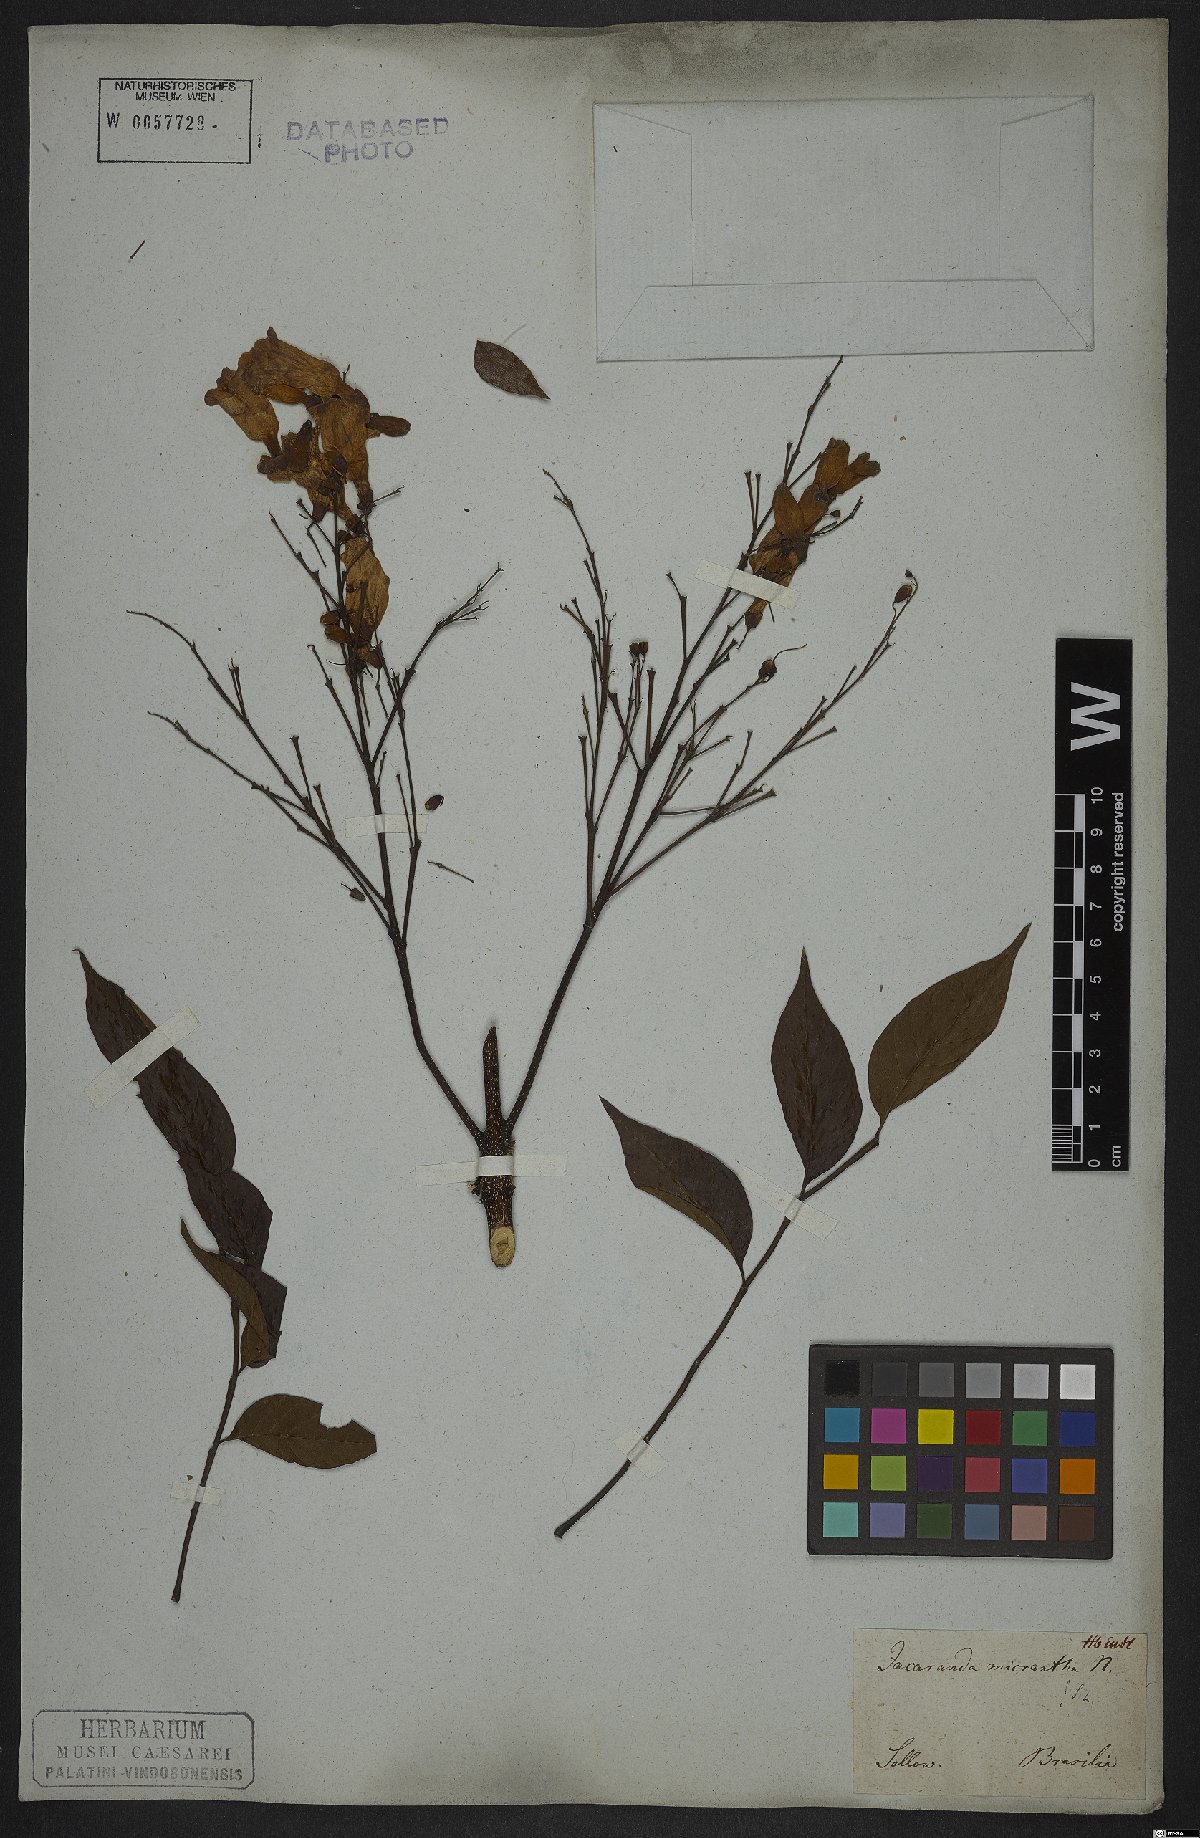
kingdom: Plantae
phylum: Tracheophyta
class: Magnoliopsida
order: Lamiales
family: Bignoniaceae
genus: Jacaranda
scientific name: Jacaranda micrantha
